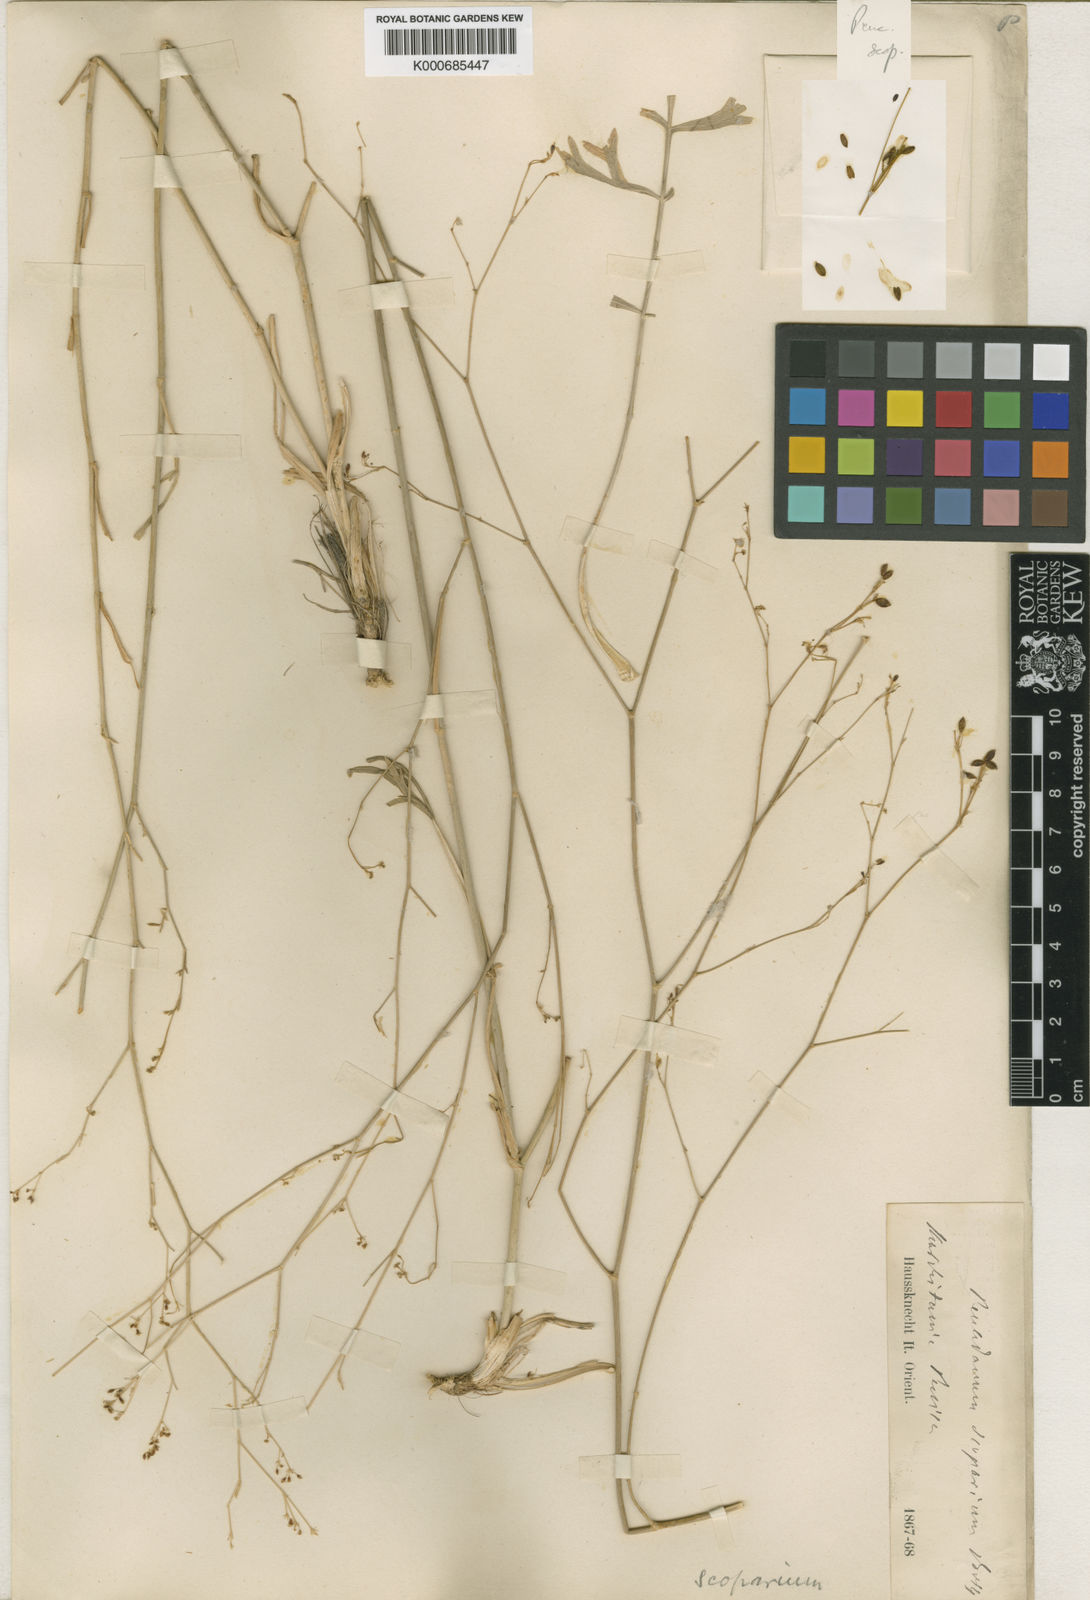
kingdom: Plantae
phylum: Tracheophyta
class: Magnoliopsida
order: Apiales
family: Apiaceae
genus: Dichoropetalum
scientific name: Dichoropetalum scoparium
